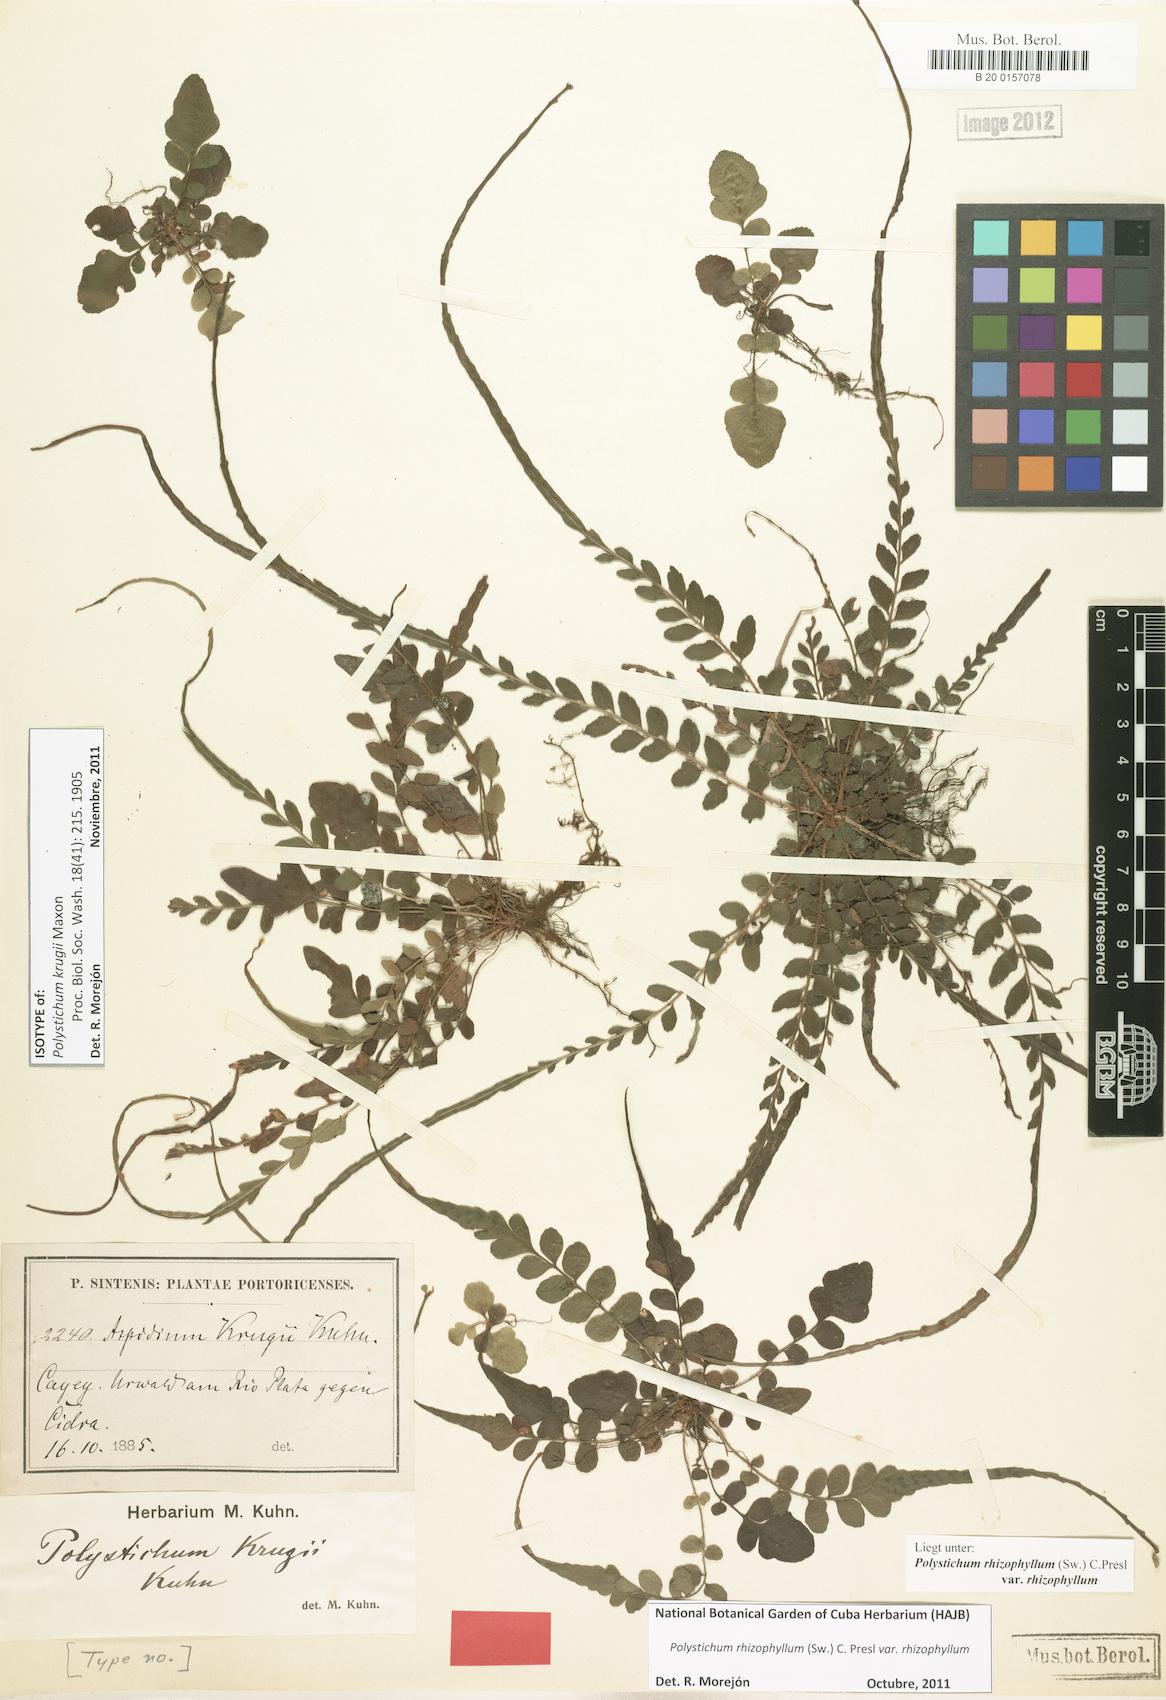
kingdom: Plantae
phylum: Tracheophyta
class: Polypodiopsida
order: Polypodiales
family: Dryopteridaceae
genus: Polystichum
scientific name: Polystichum rhizophyllum
